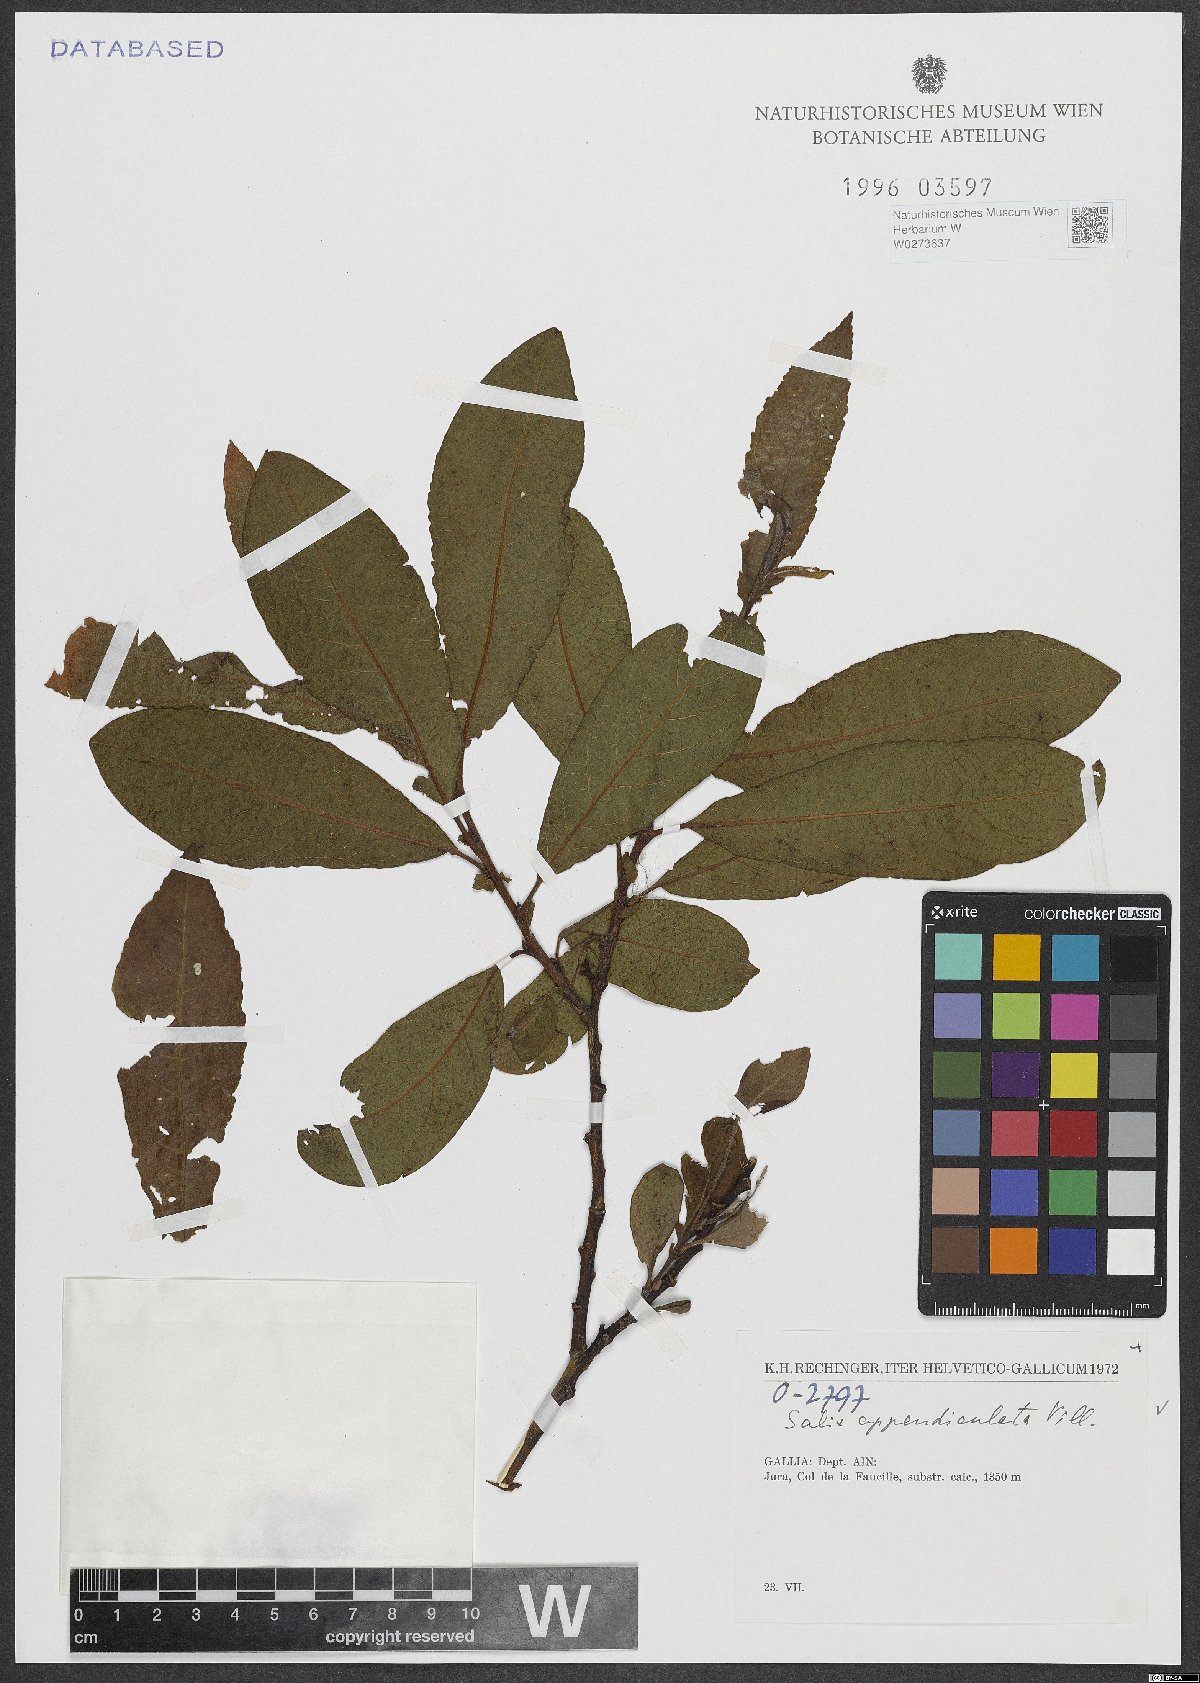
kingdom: Plantae
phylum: Tracheophyta
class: Magnoliopsida
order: Malpighiales
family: Salicaceae
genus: Salix
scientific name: Salix appendiculata
